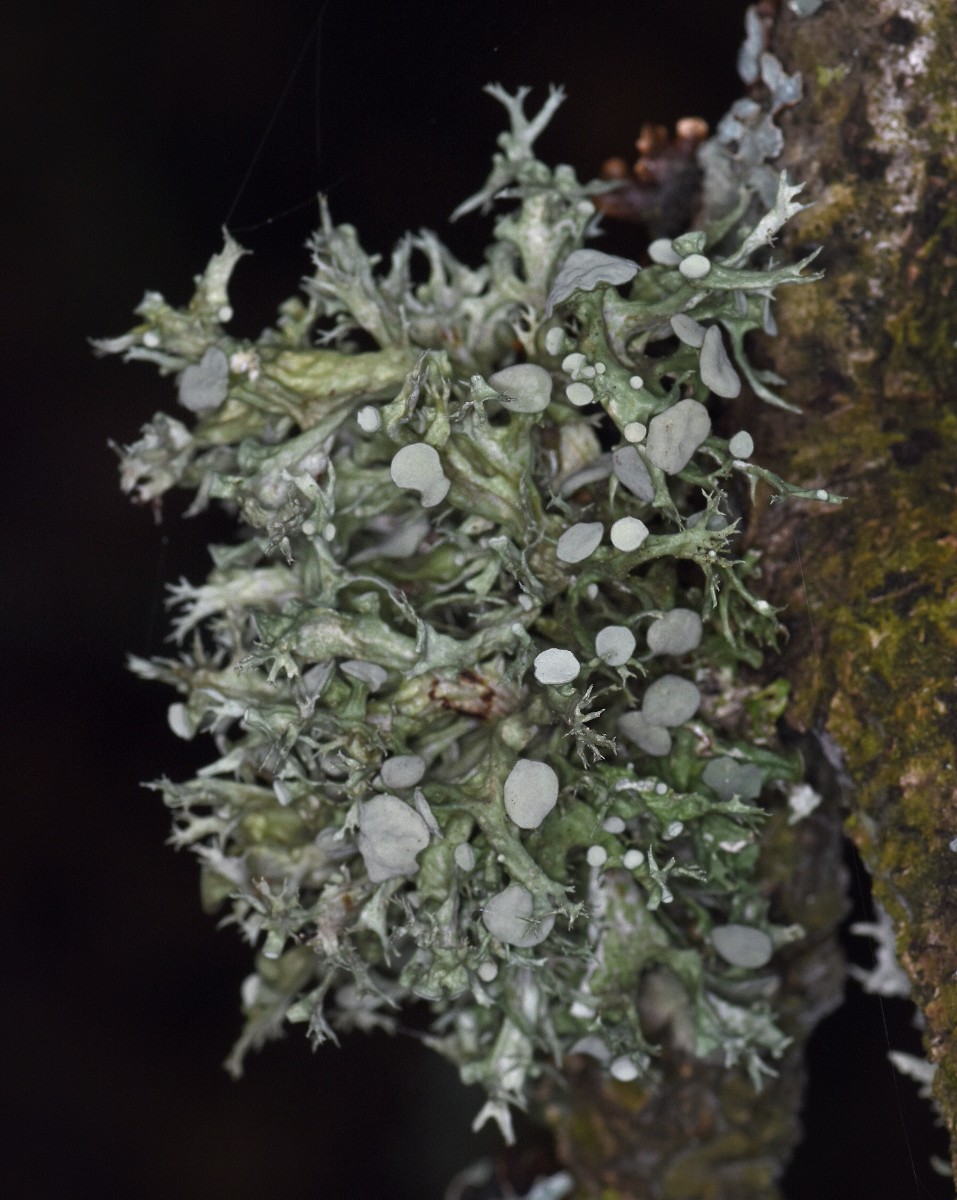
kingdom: Fungi
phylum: Ascomycota
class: Lecanoromycetes
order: Lecanorales
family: Ramalinaceae
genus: Ramalina
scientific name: Ramalina fastigiata
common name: tue-grenlav
